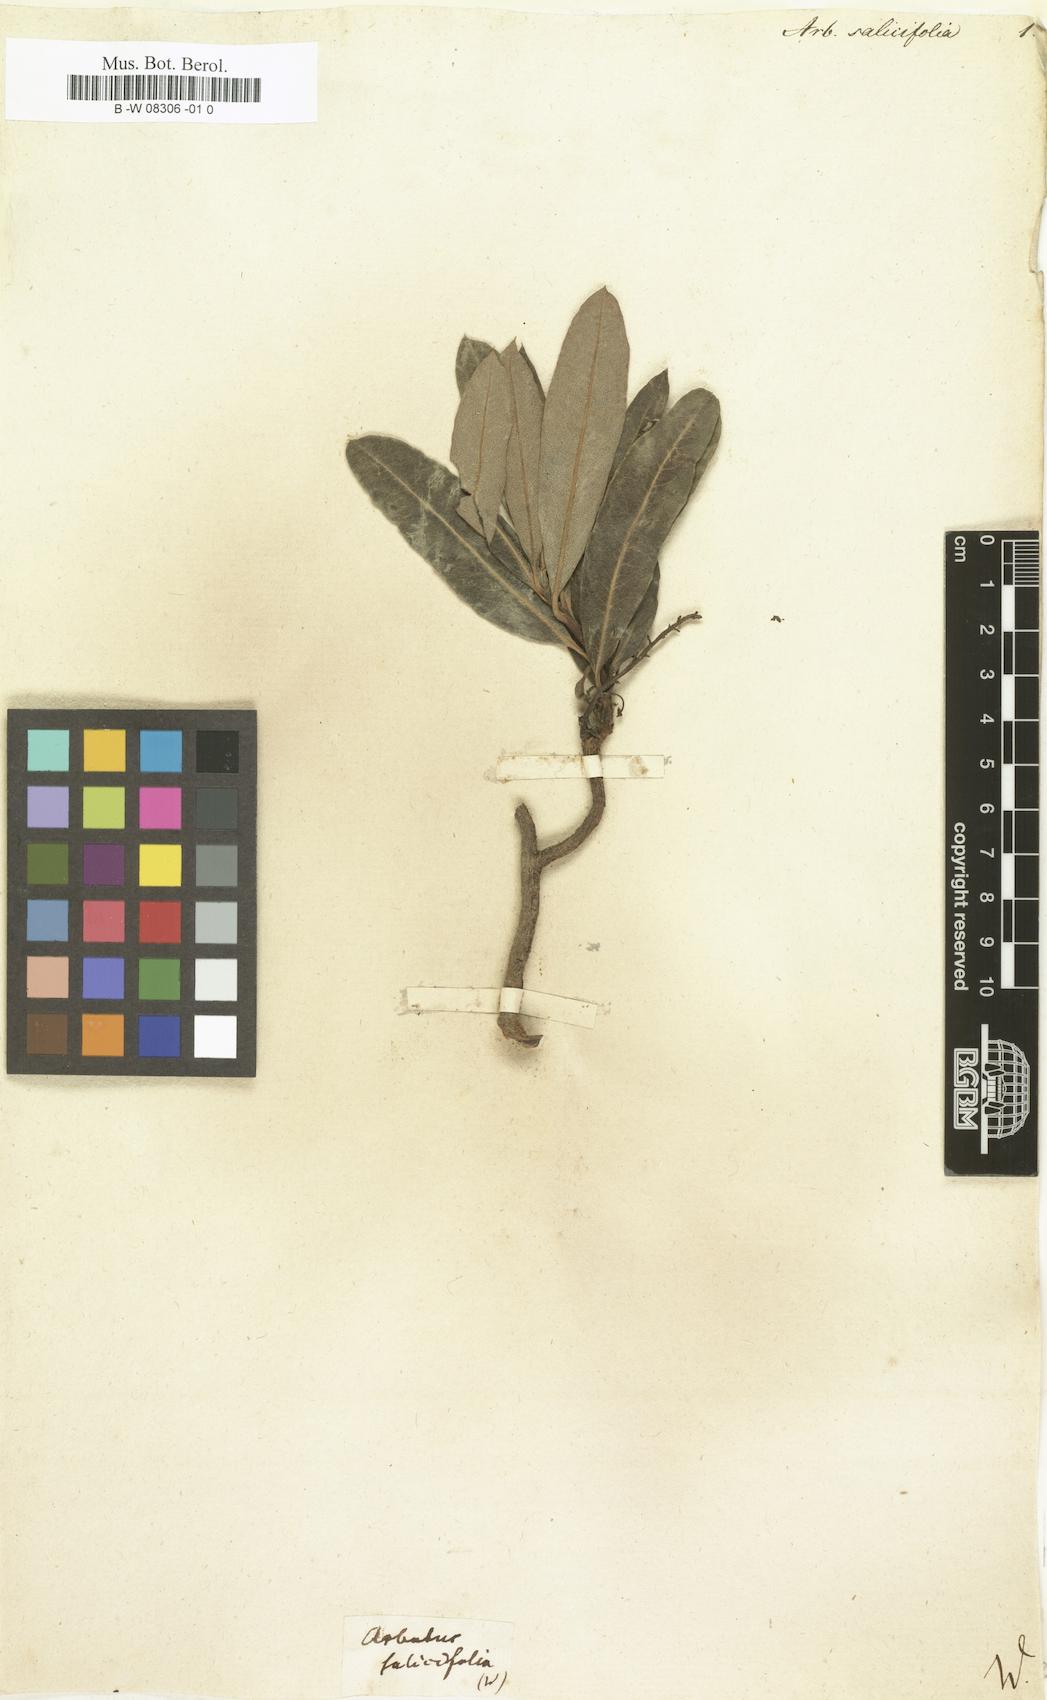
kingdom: Plantae
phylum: Tracheophyta
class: Magnoliopsida
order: Ericales
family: Ericaceae
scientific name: Ericaceae
